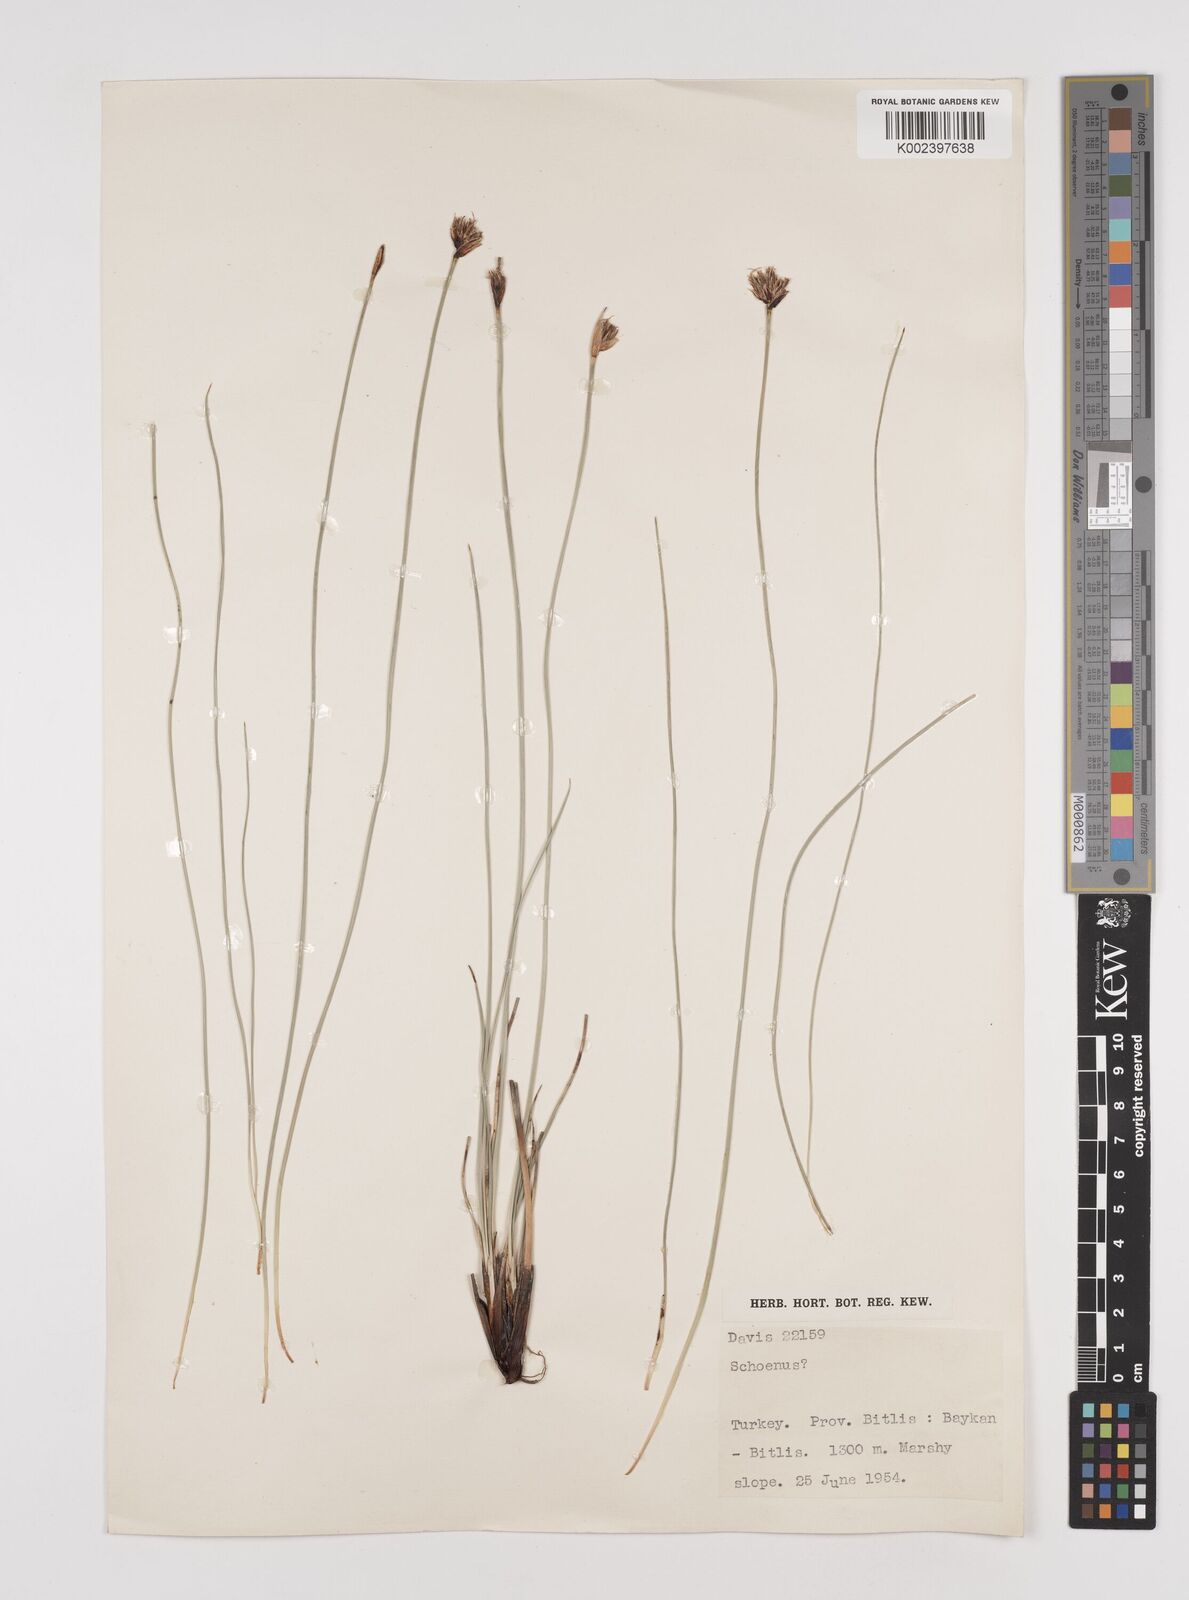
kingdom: Plantae
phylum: Tracheophyta
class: Liliopsida
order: Poales
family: Cyperaceae
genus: Schoenus
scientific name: Schoenus nigricans
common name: Black bog-rush
